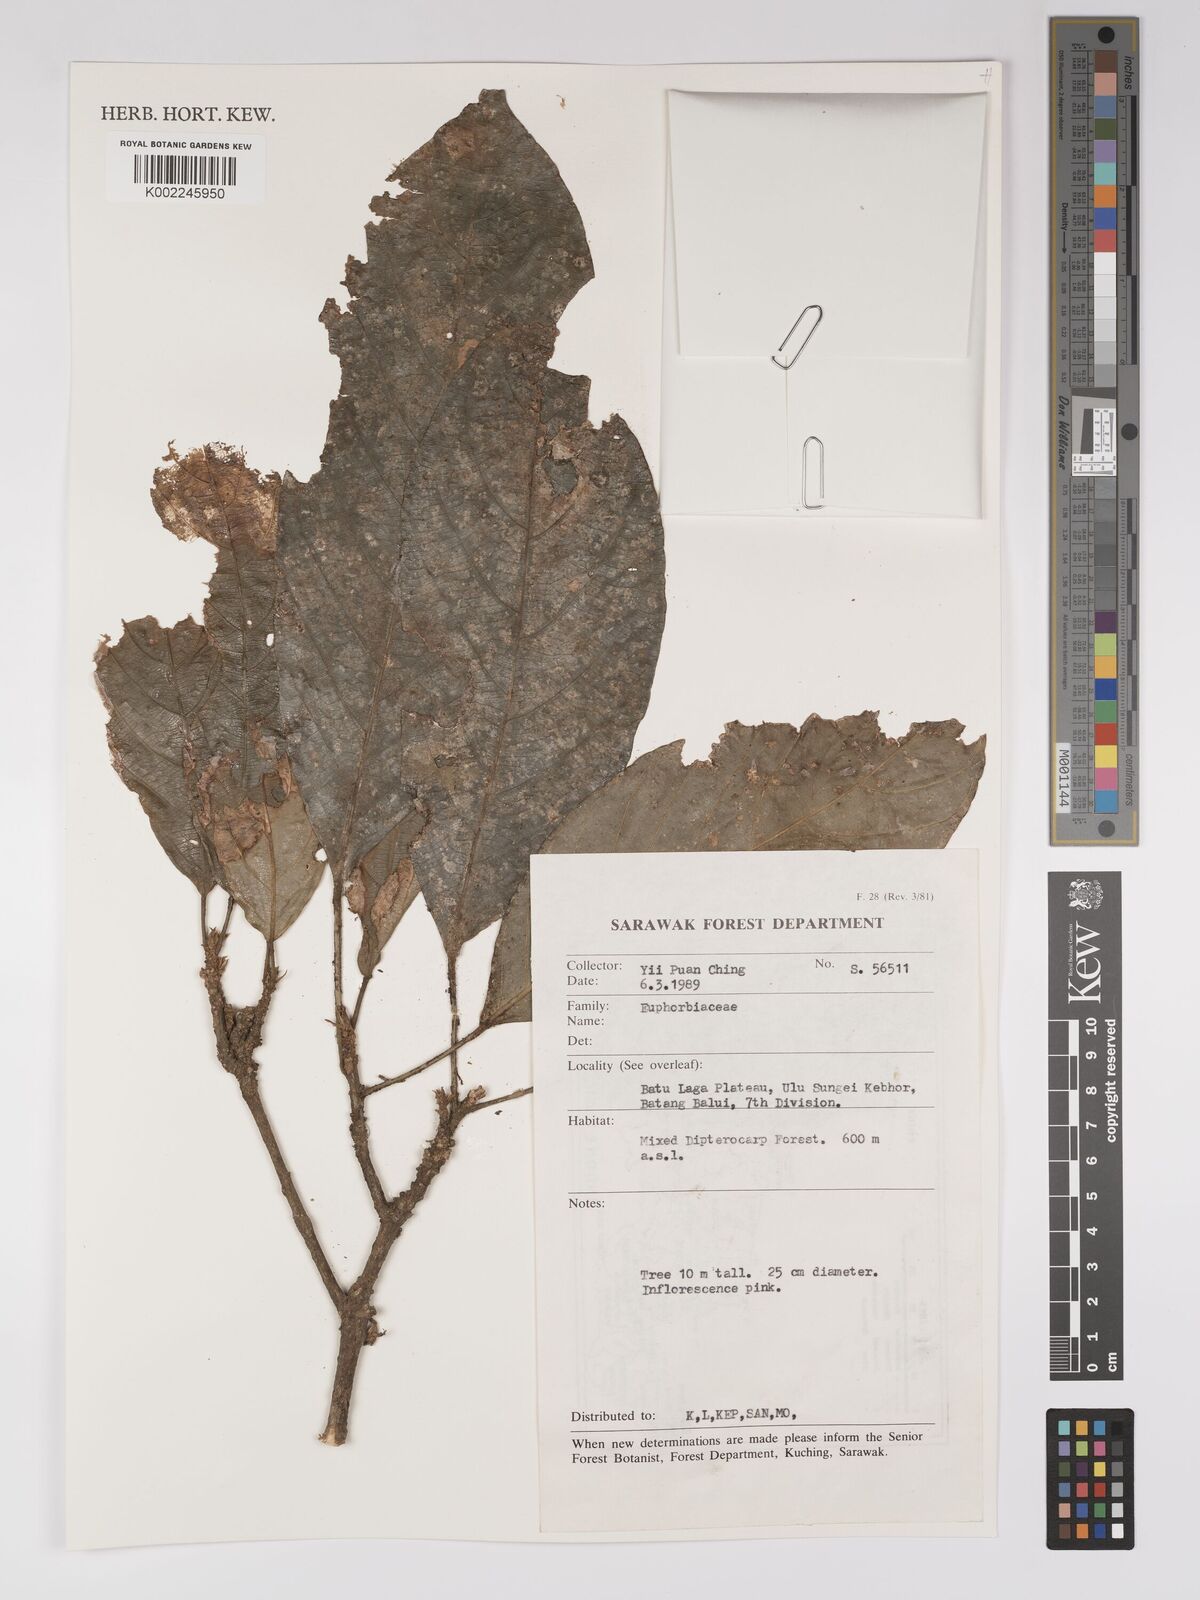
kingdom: Plantae
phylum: Tracheophyta
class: Magnoliopsida
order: Malpighiales
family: Euphorbiaceae
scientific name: Euphorbiaceae
